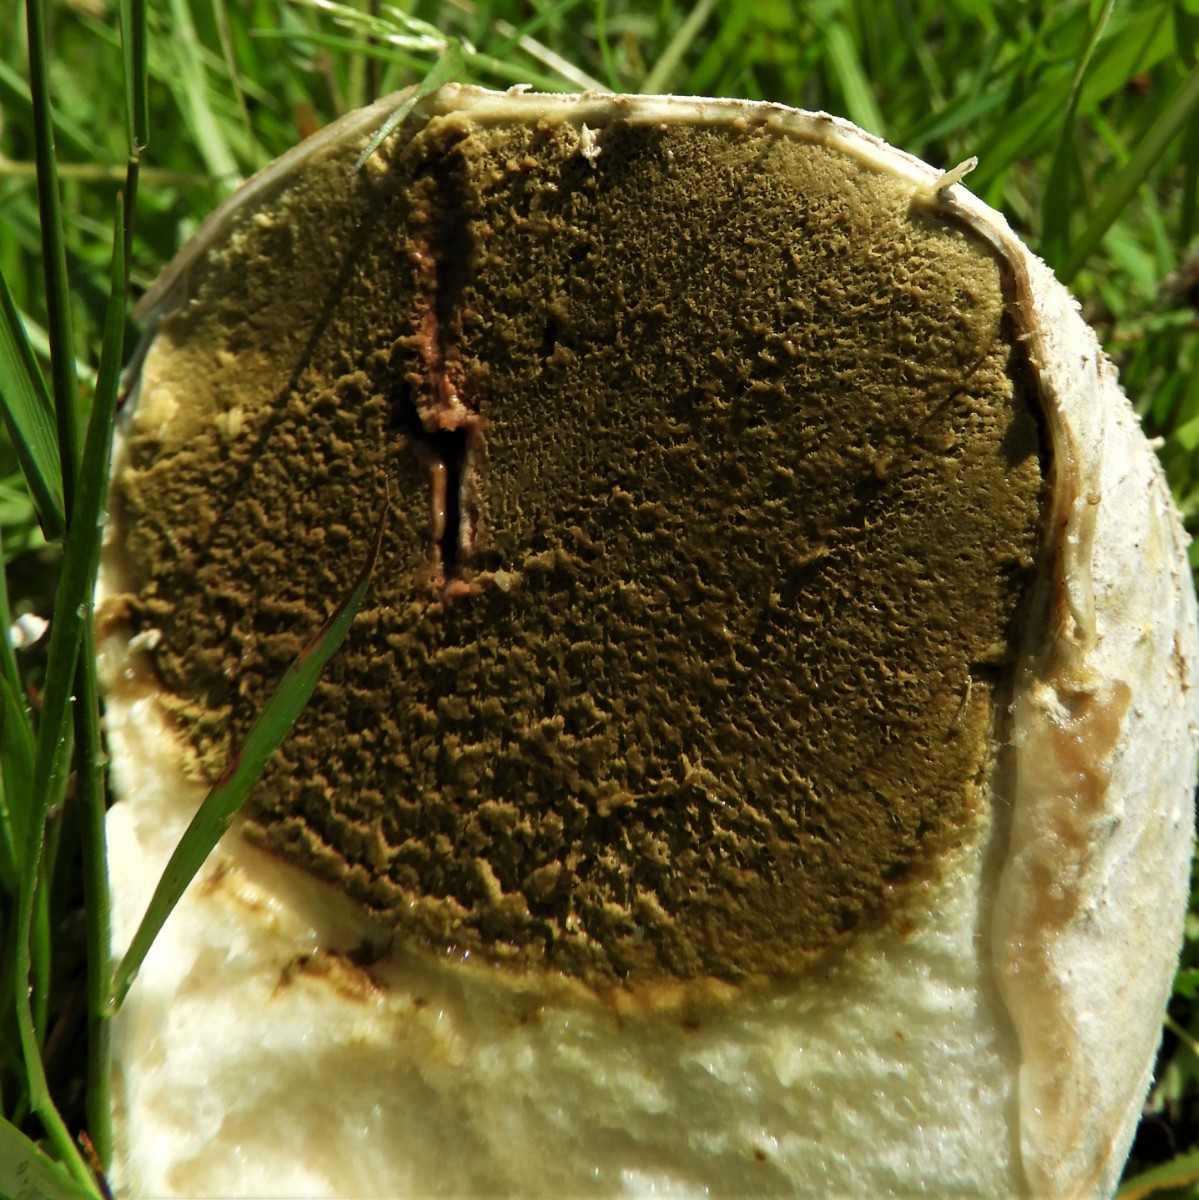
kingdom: Fungi
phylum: Basidiomycota
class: Agaricomycetes
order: Agaricales
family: Lycoperdaceae
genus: Bovistella
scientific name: Bovistella utriformis
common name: skællet støvbold
